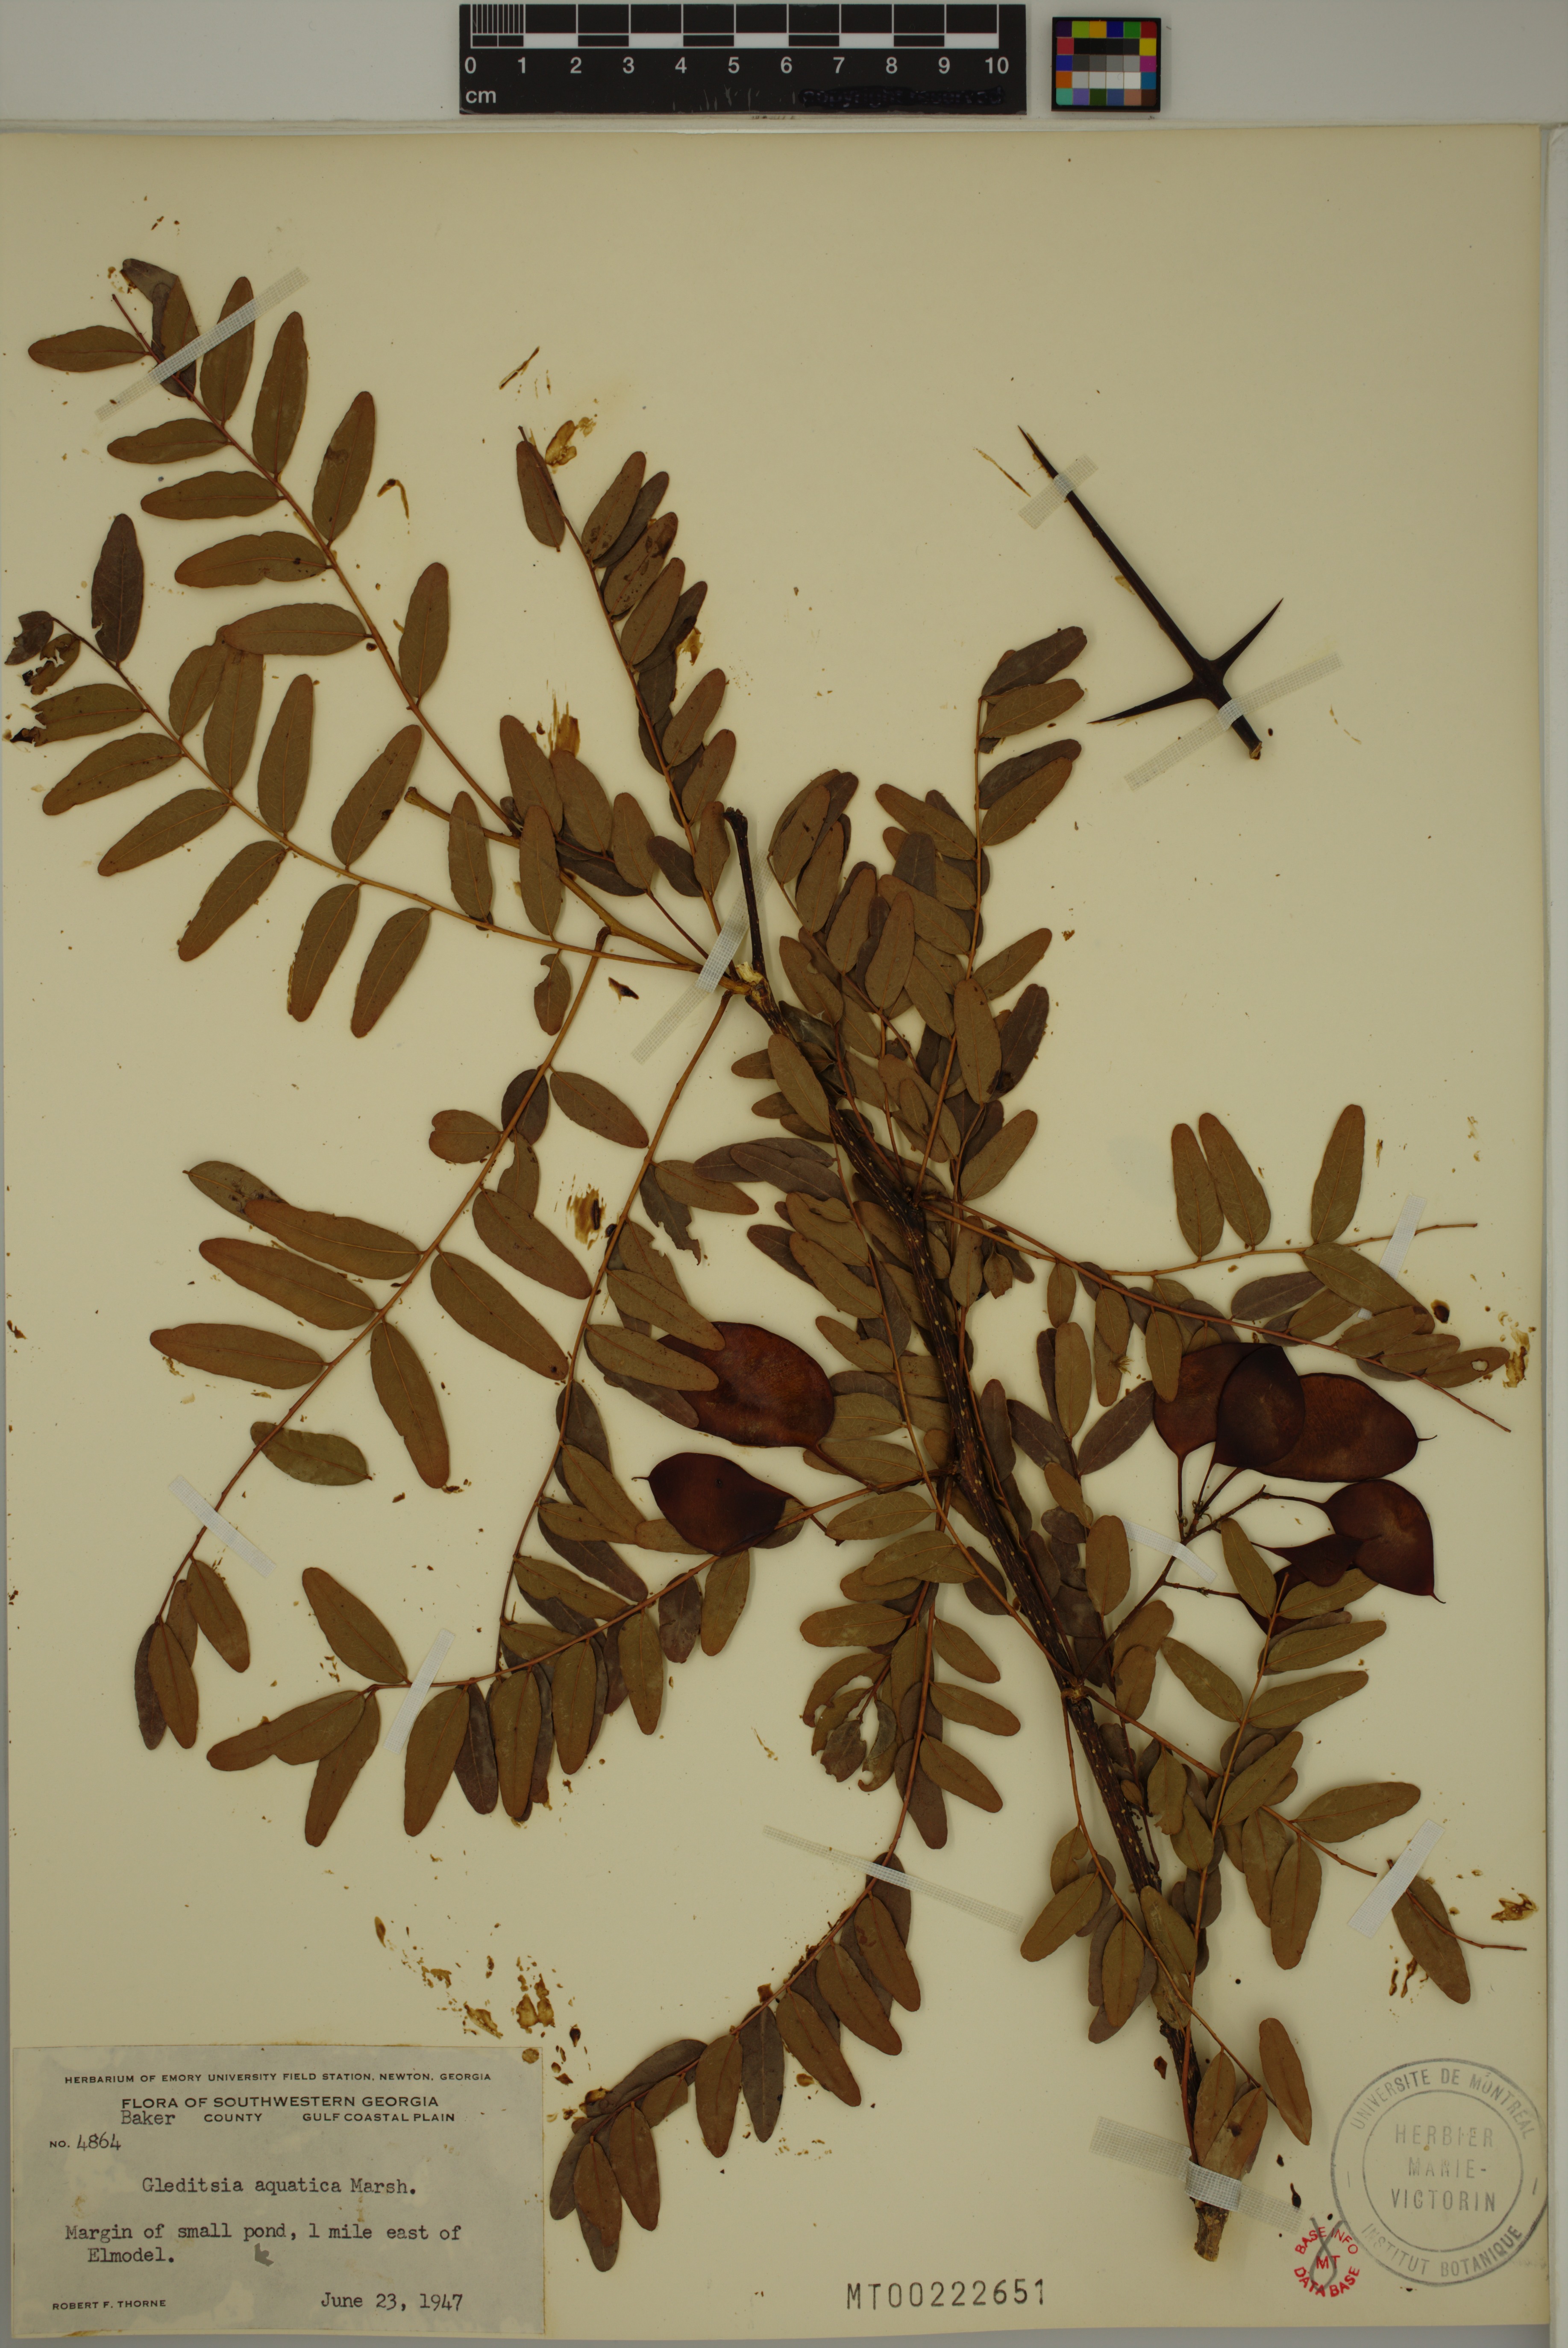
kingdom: Plantae
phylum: Tracheophyta
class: Magnoliopsida
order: Fabales
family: Fabaceae
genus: Gleditsia
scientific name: Gleditsia aquatica
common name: Swamp-locust
